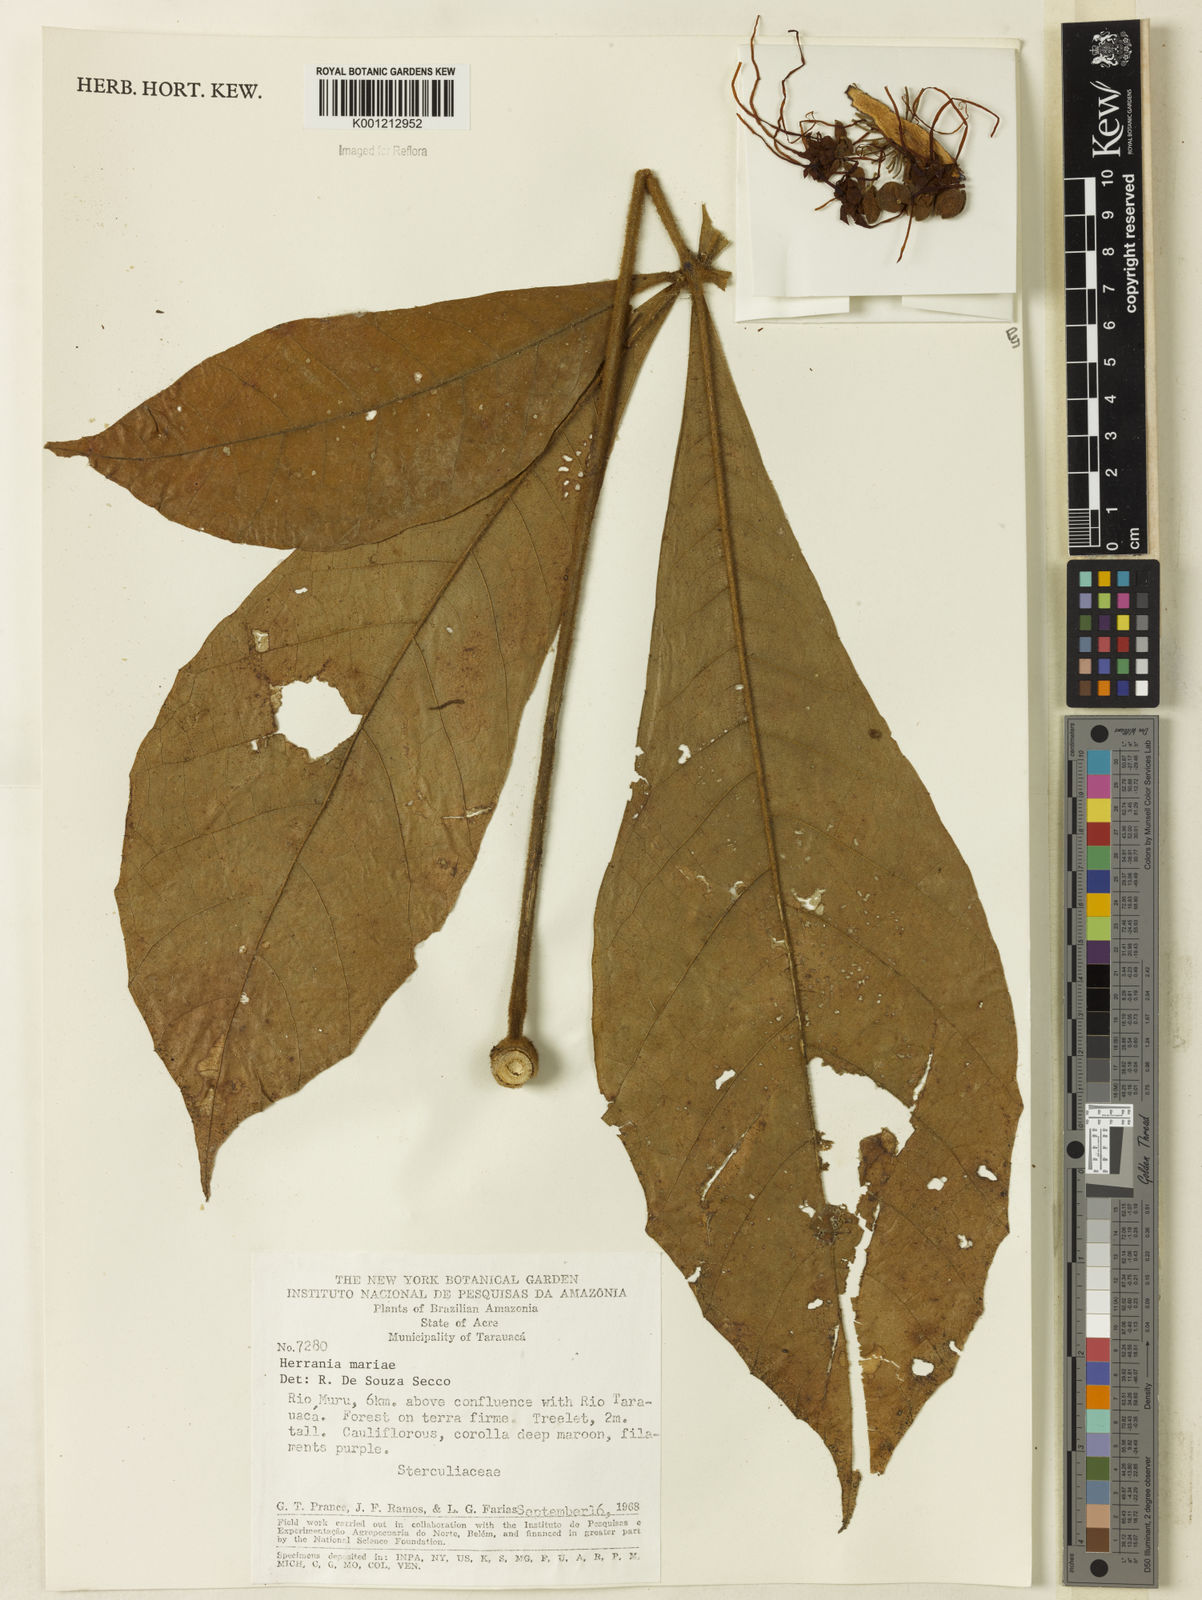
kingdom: Plantae
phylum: Tracheophyta
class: Magnoliopsida
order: Malvales
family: Malvaceae
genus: Herrania
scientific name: Herrania mariae
